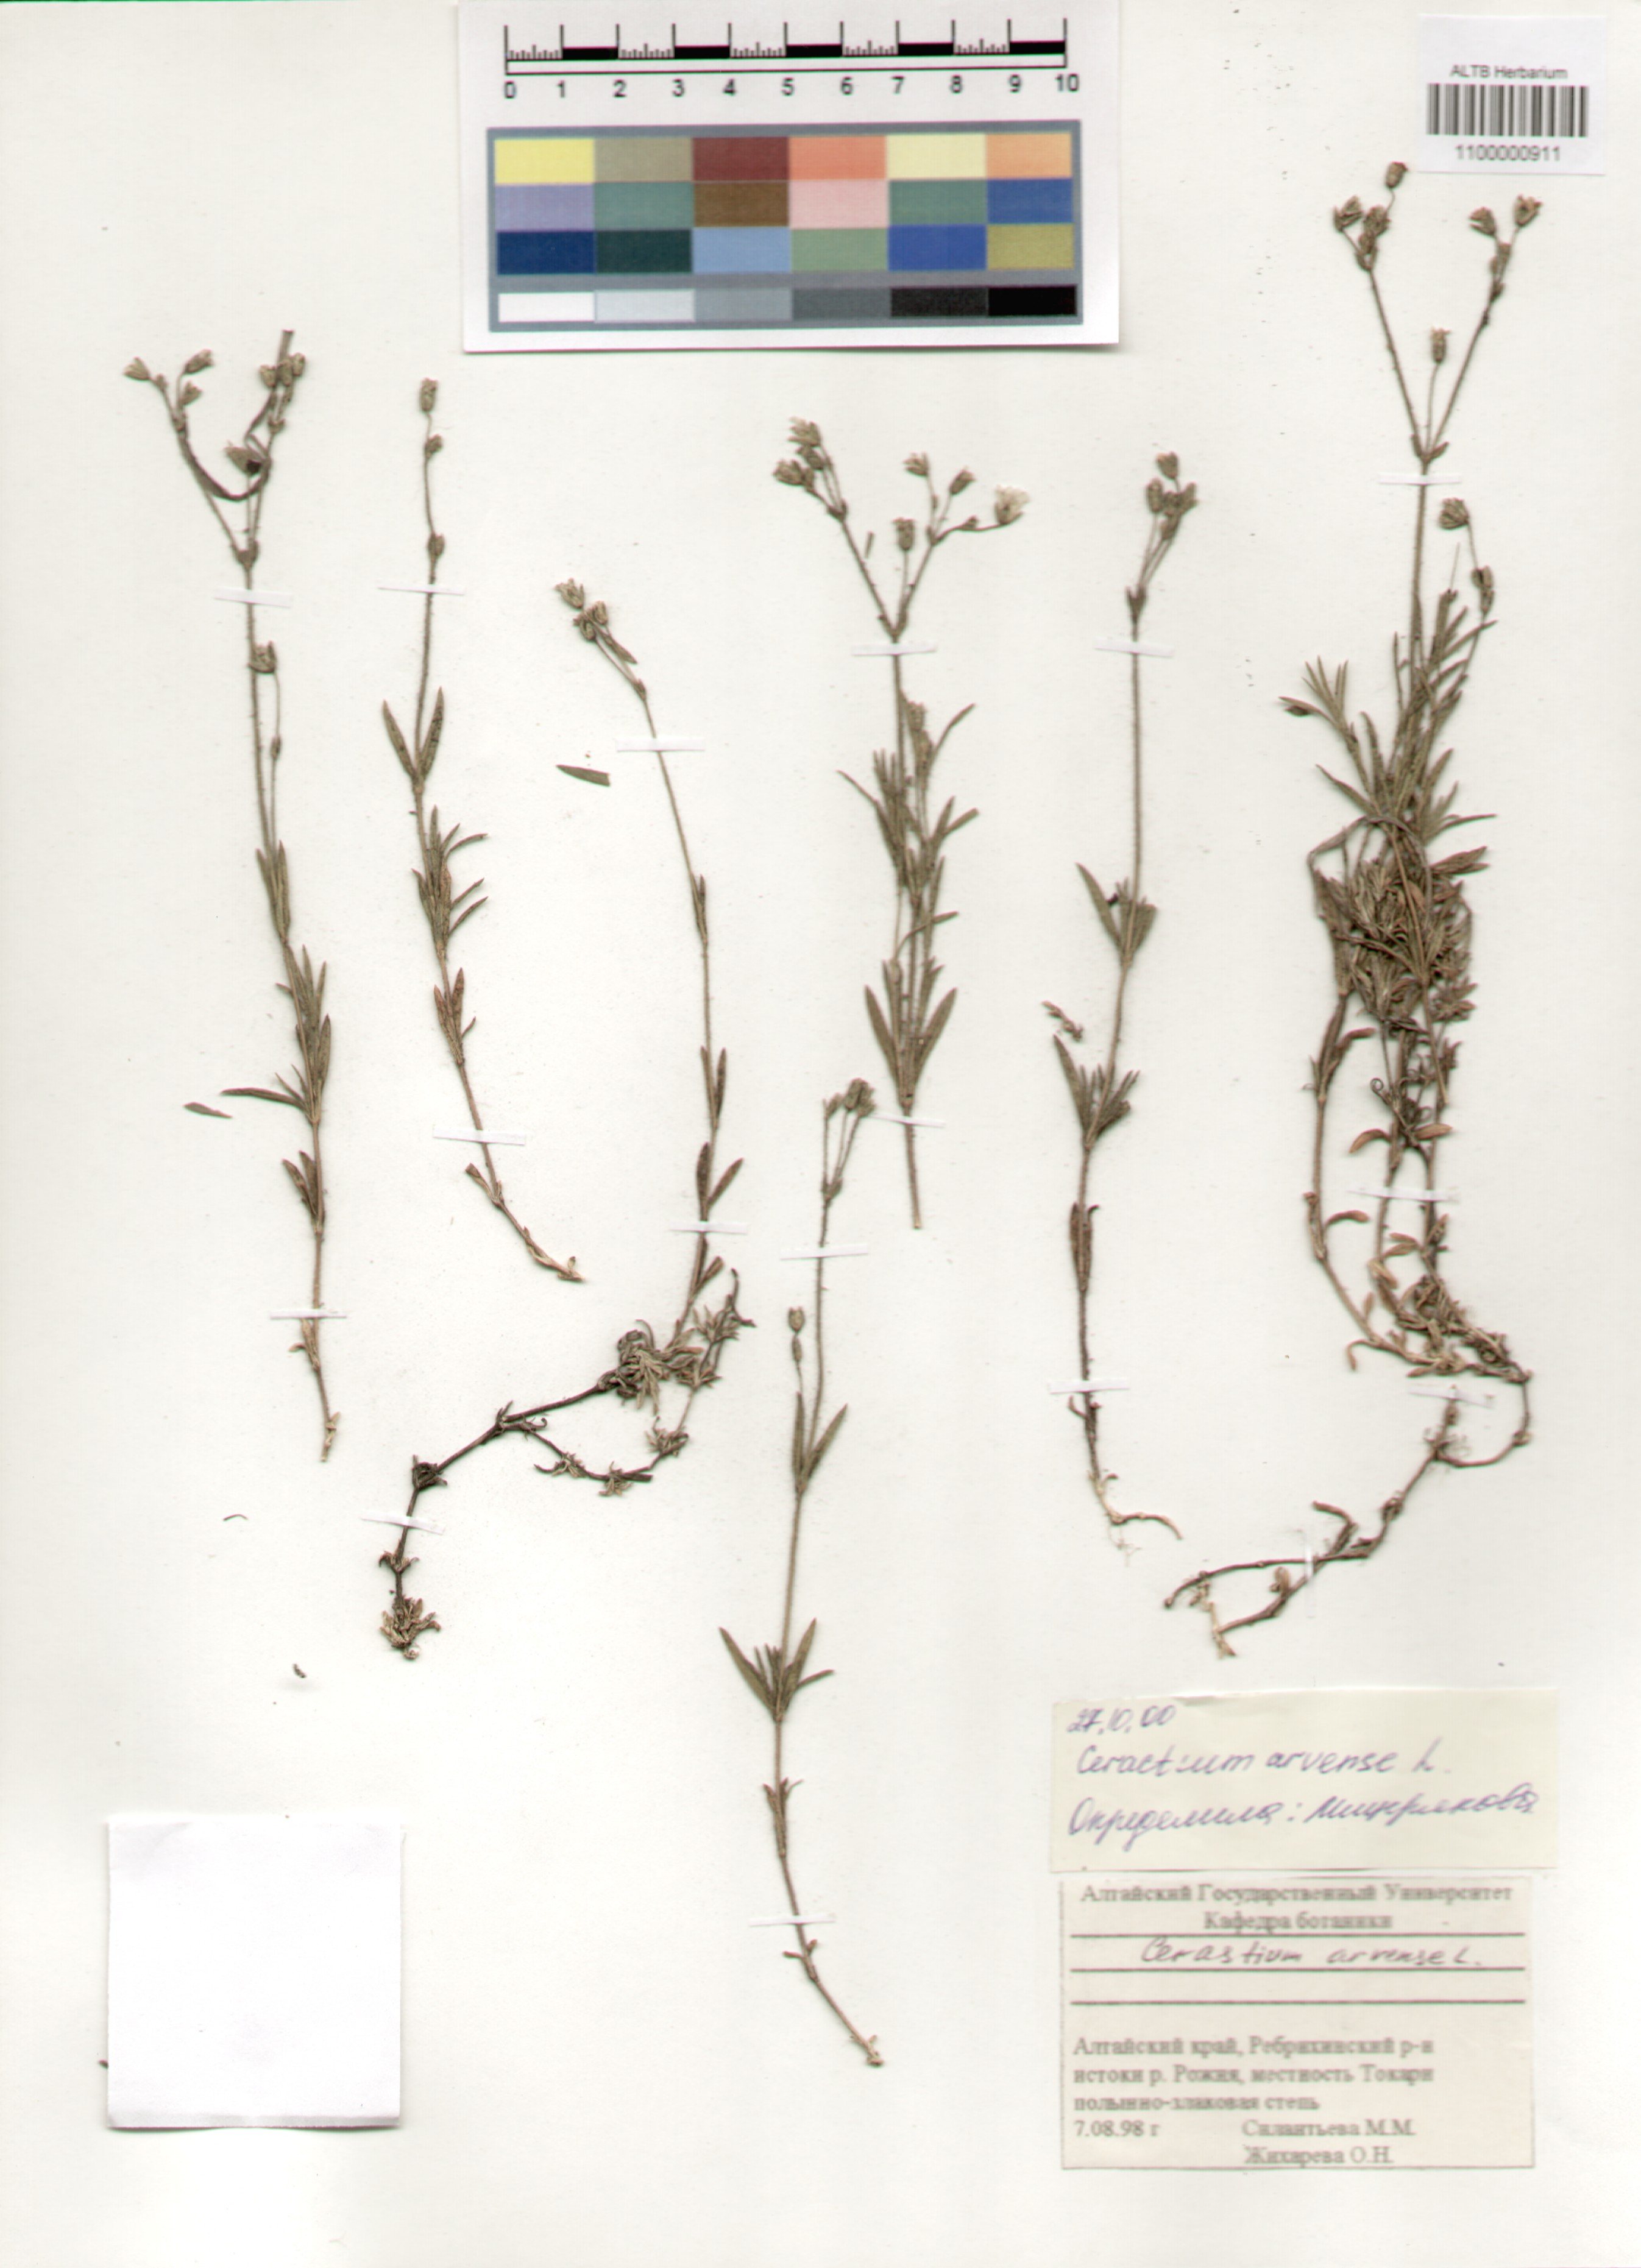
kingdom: Plantae
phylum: Tracheophyta
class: Magnoliopsida
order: Caryophyllales
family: Caryophyllaceae
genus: Cerastium
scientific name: Cerastium arvense
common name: Field mouse-ear
